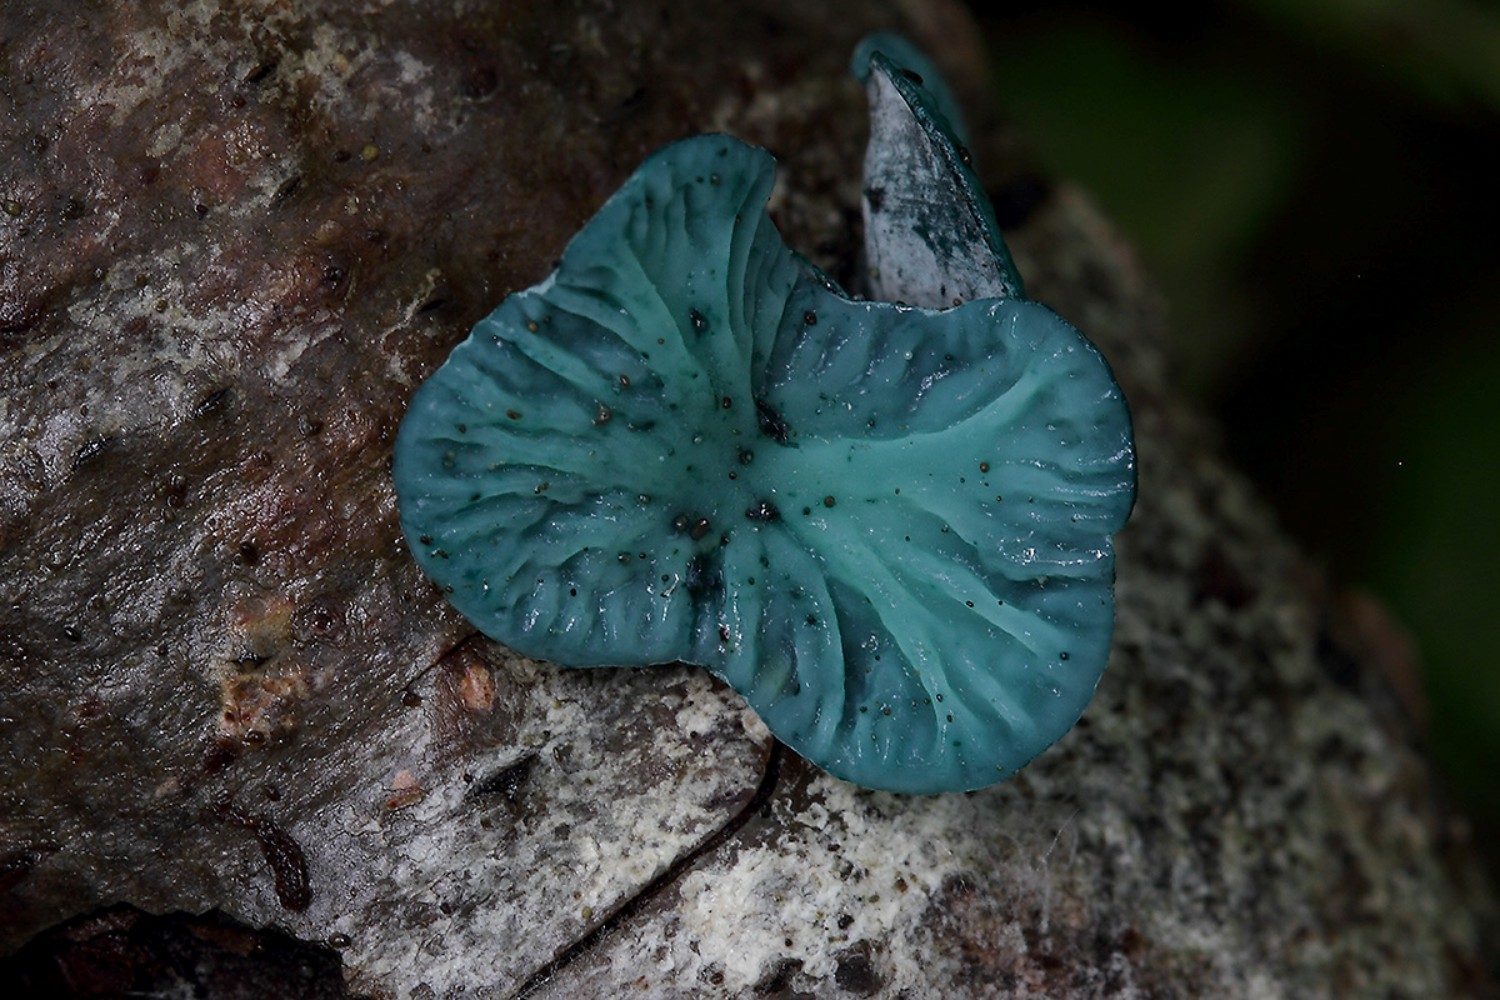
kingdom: Fungi
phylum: Ascomycota
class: Leotiomycetes
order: Helotiales
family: Chlorociboriaceae
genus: Chlorociboria
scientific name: Chlorociboria aeruginascens
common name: almindelig grønskive
